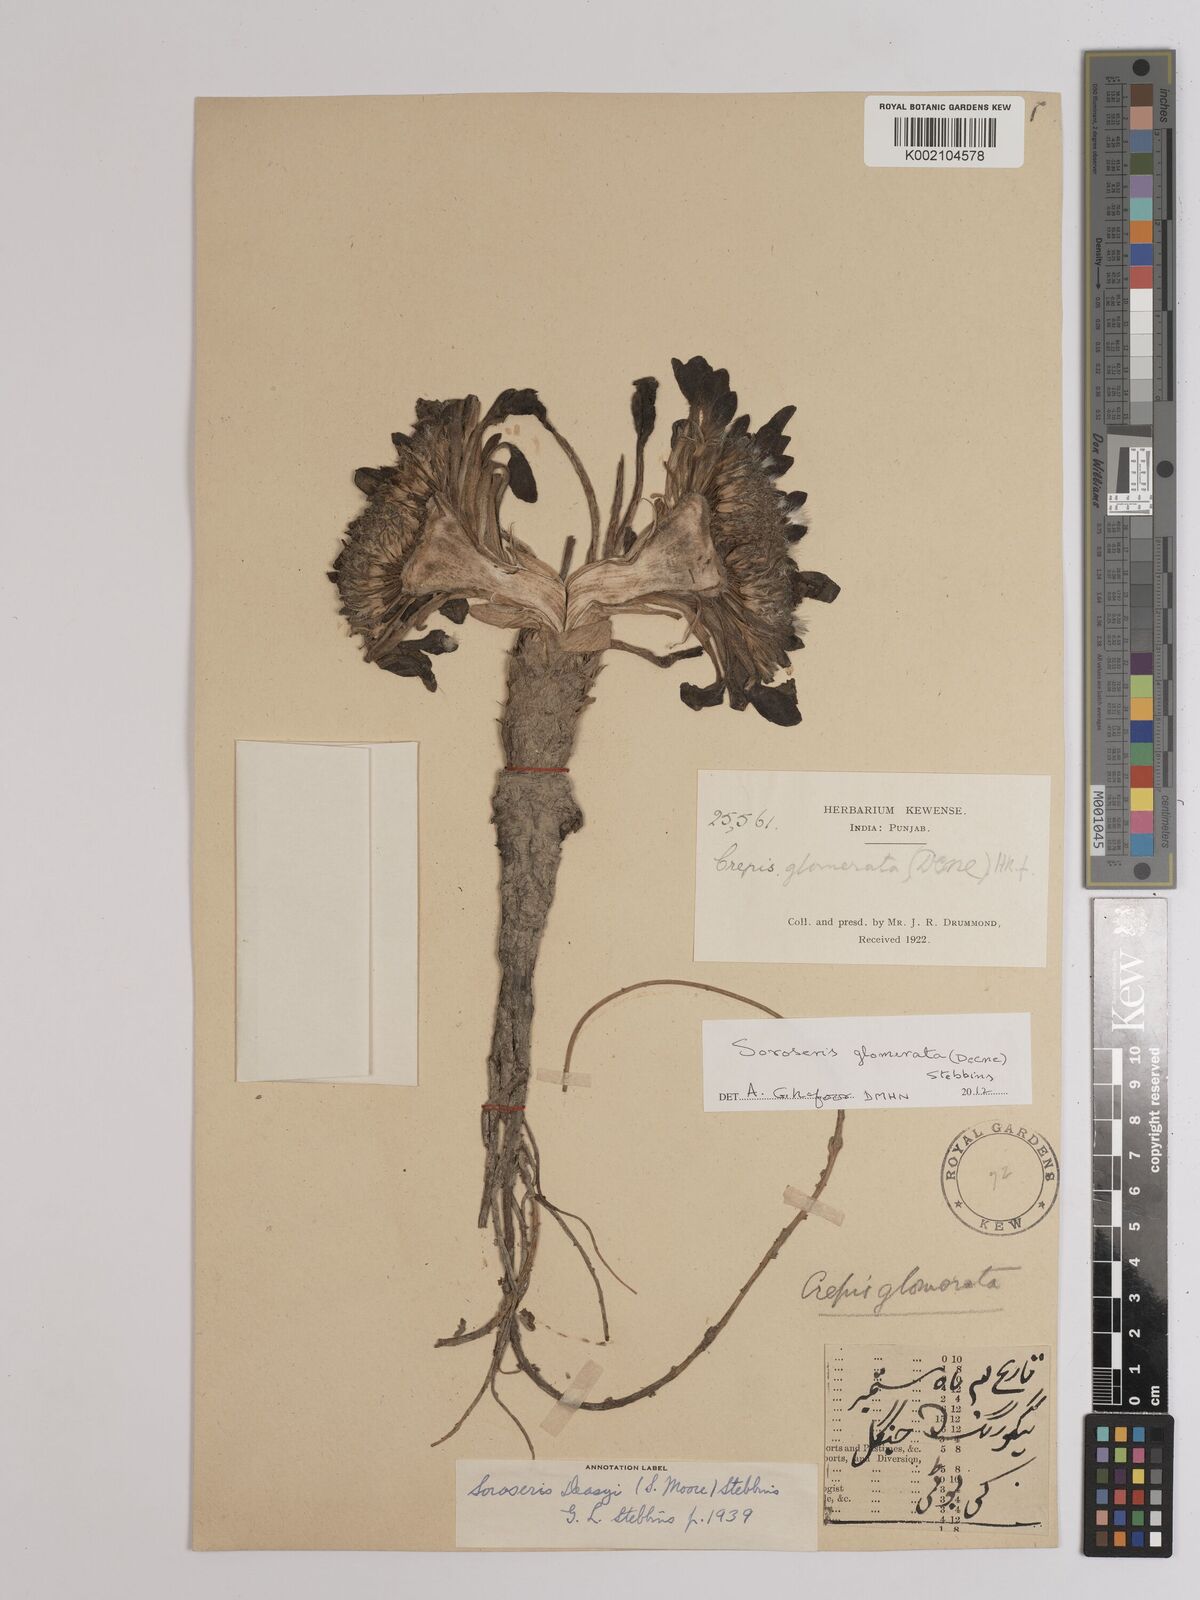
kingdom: Plantae
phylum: Tracheophyta
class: Magnoliopsida
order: Asterales
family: Asteraceae
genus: Soroseris
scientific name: Soroseris deasyi
